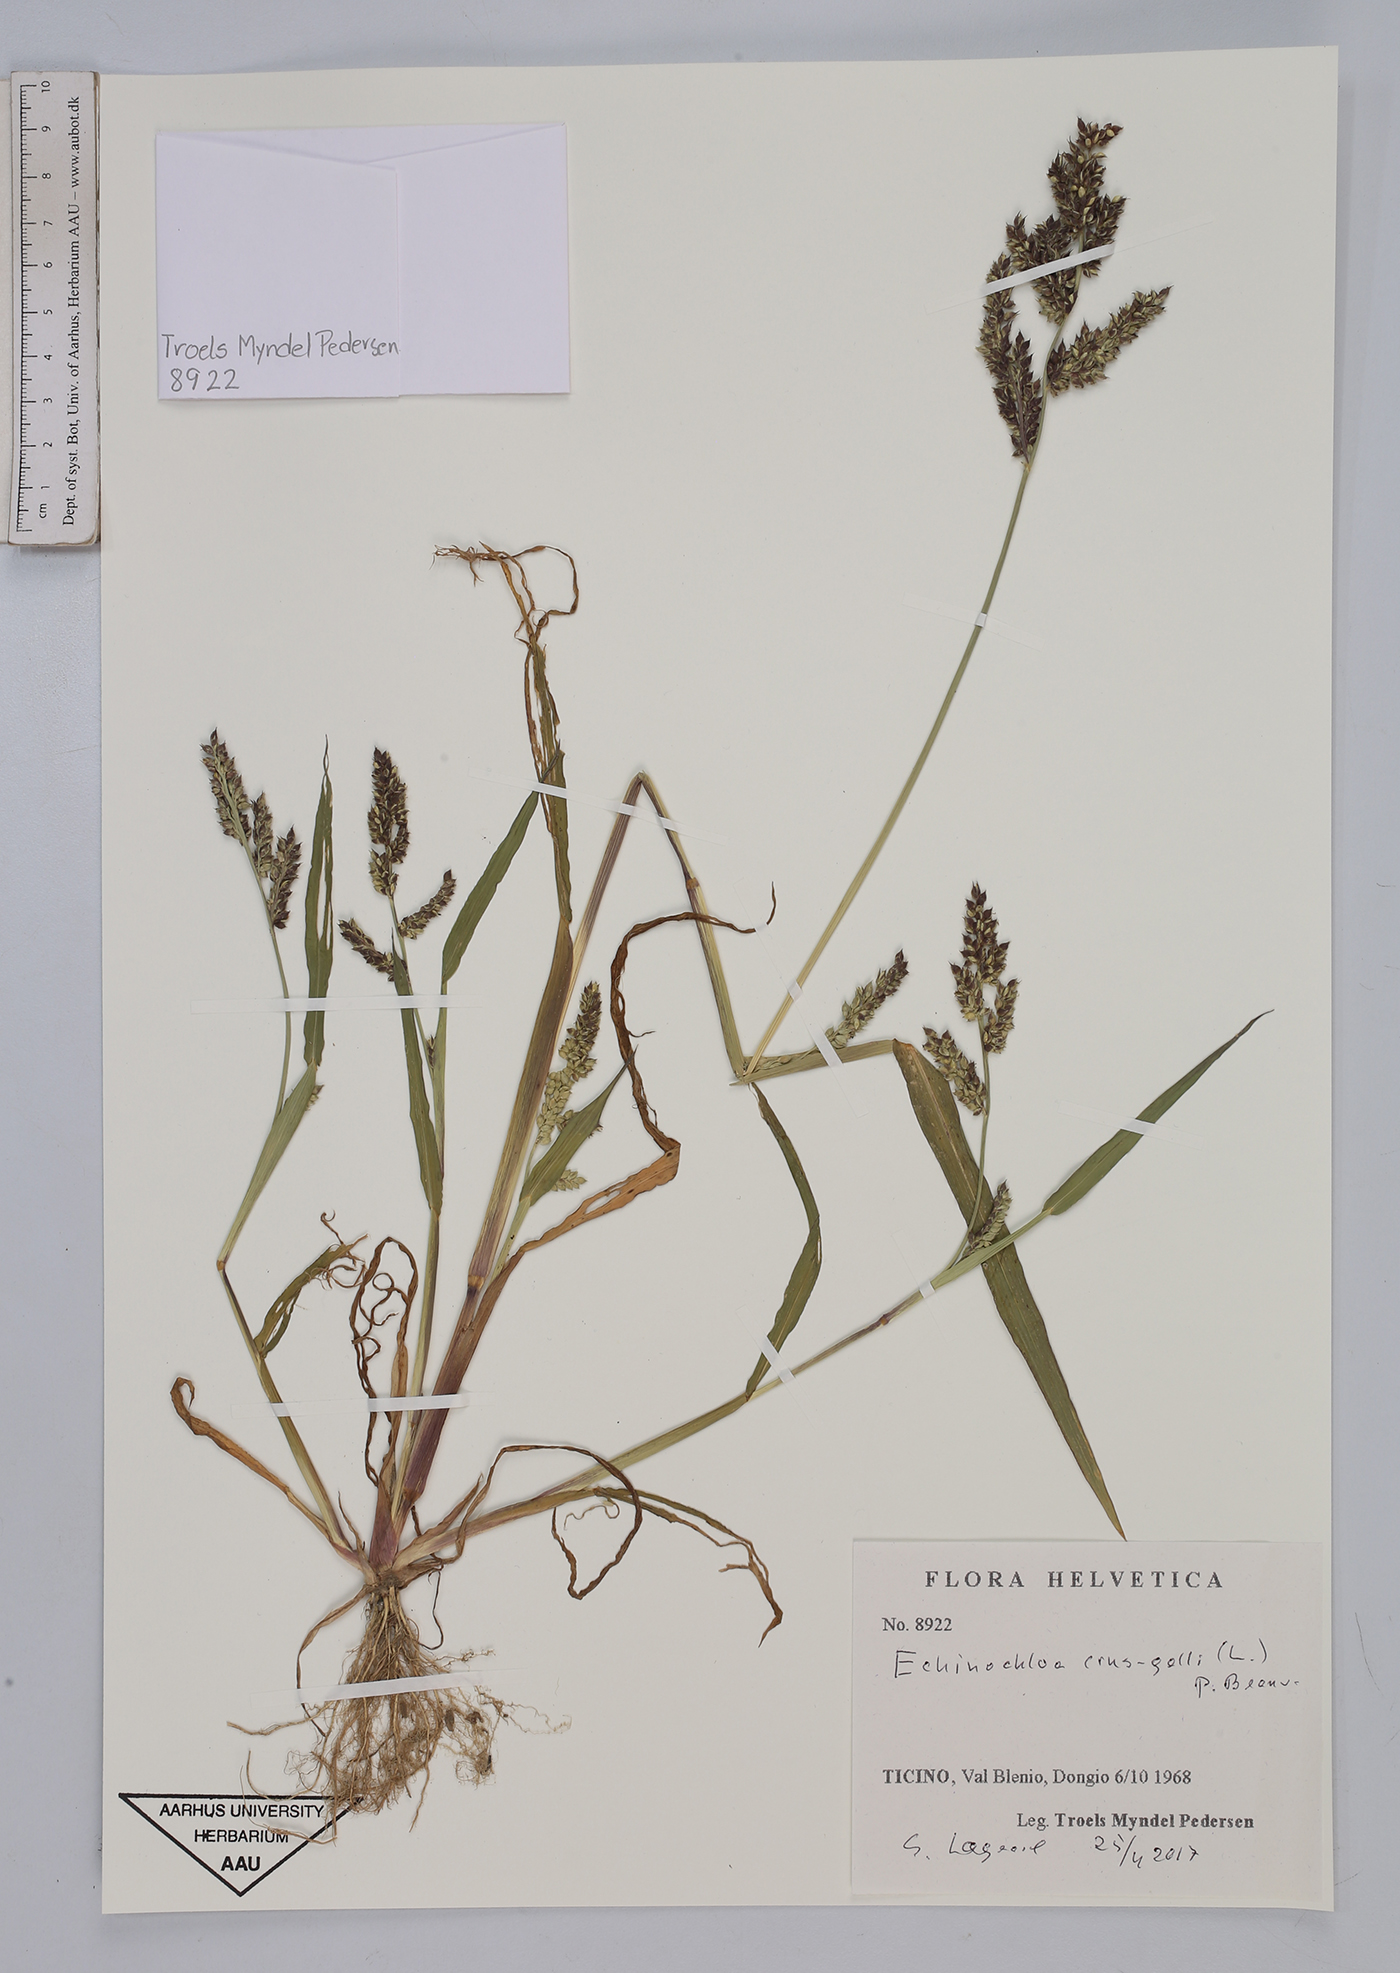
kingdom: Plantae
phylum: Tracheophyta
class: Liliopsida
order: Poales
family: Poaceae
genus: Echinochloa
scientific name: Echinochloa crus-galli
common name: Cockspur
